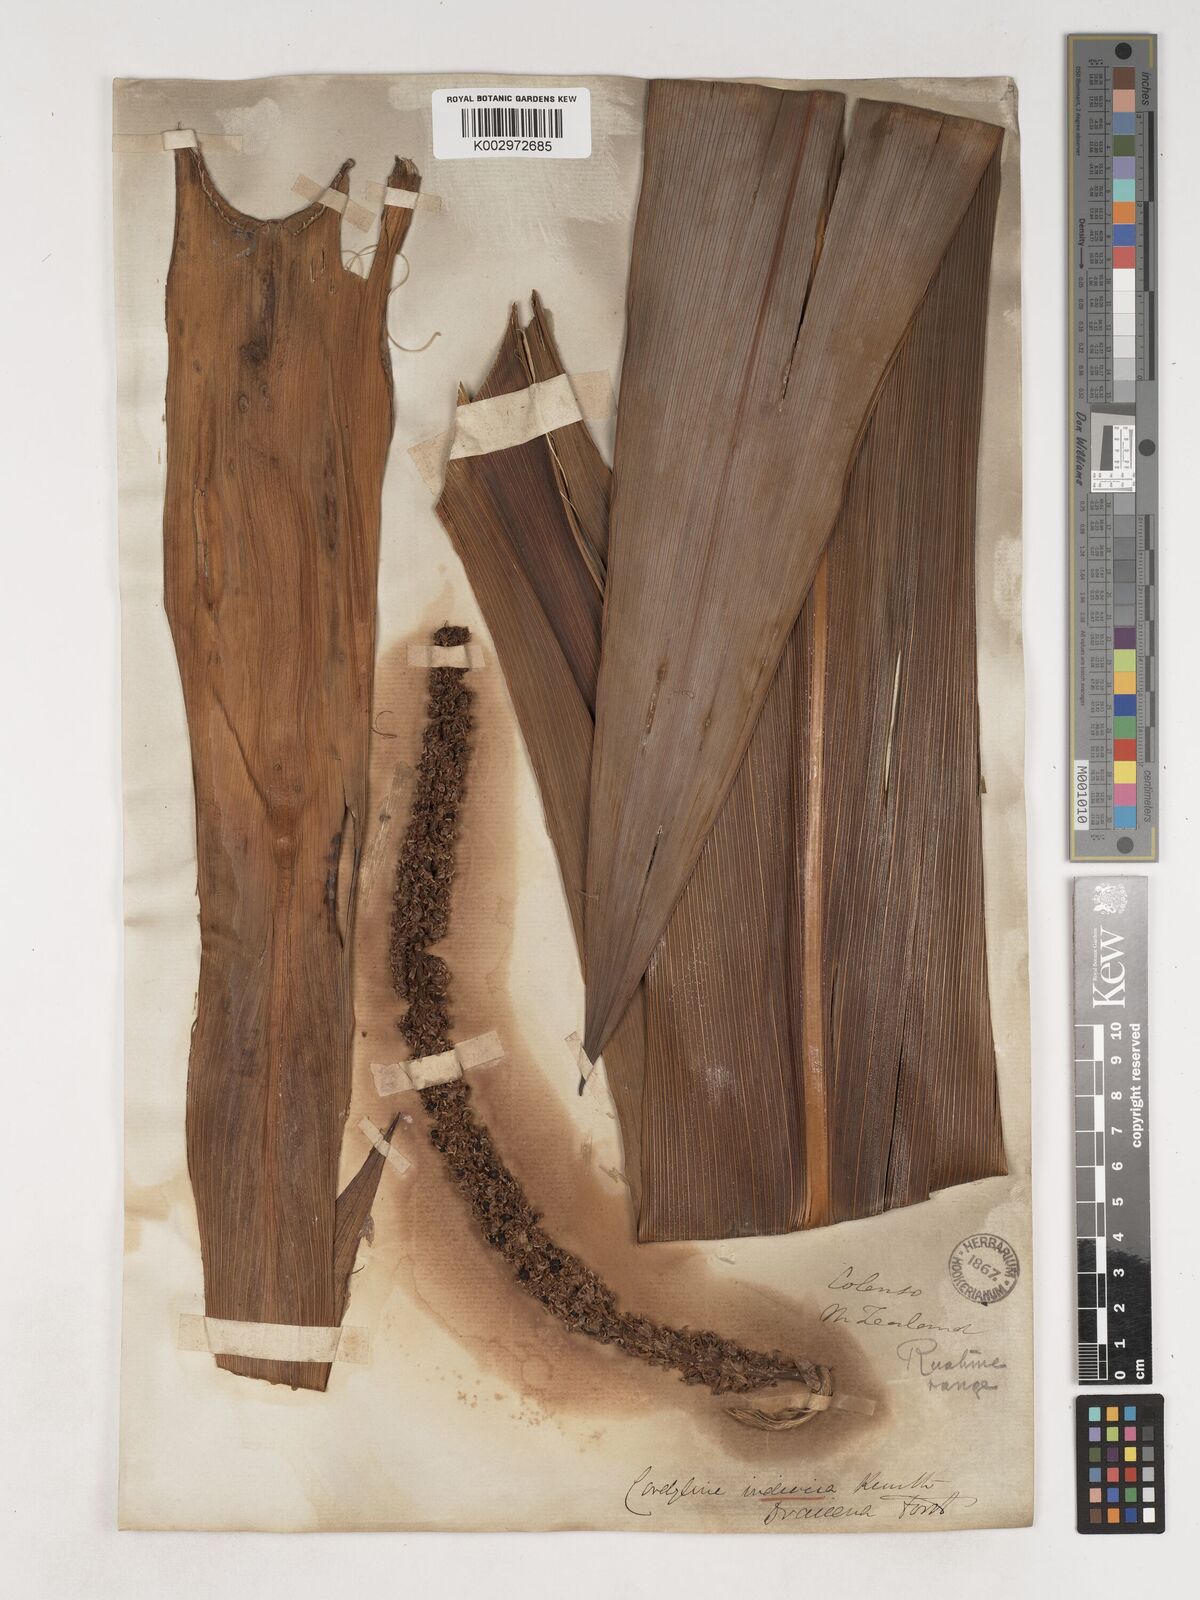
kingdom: Plantae
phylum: Tracheophyta
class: Liliopsida
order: Asparagales
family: Asparagaceae
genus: Cordyline
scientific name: Cordyline
